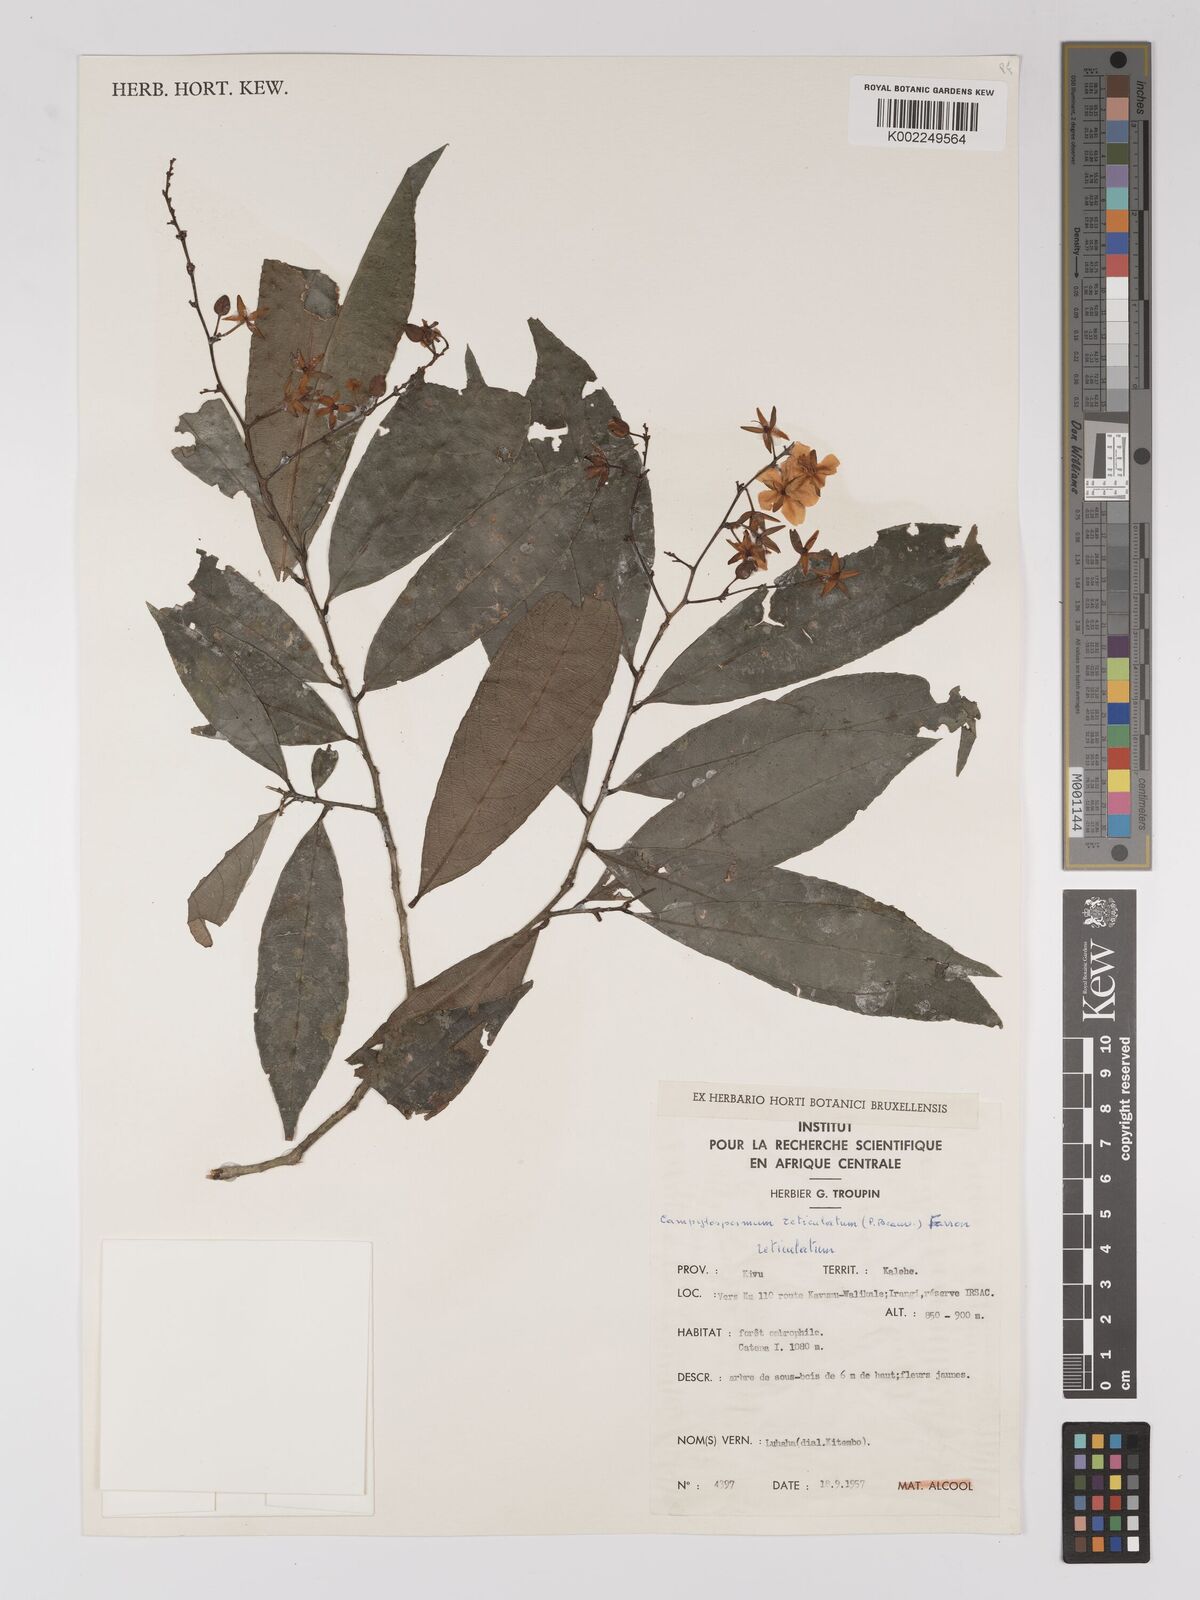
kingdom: Plantae
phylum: Tracheophyta
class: Magnoliopsida
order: Malpighiales
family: Ochnaceae
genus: Campylospermum
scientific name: Campylospermum reticulatum
